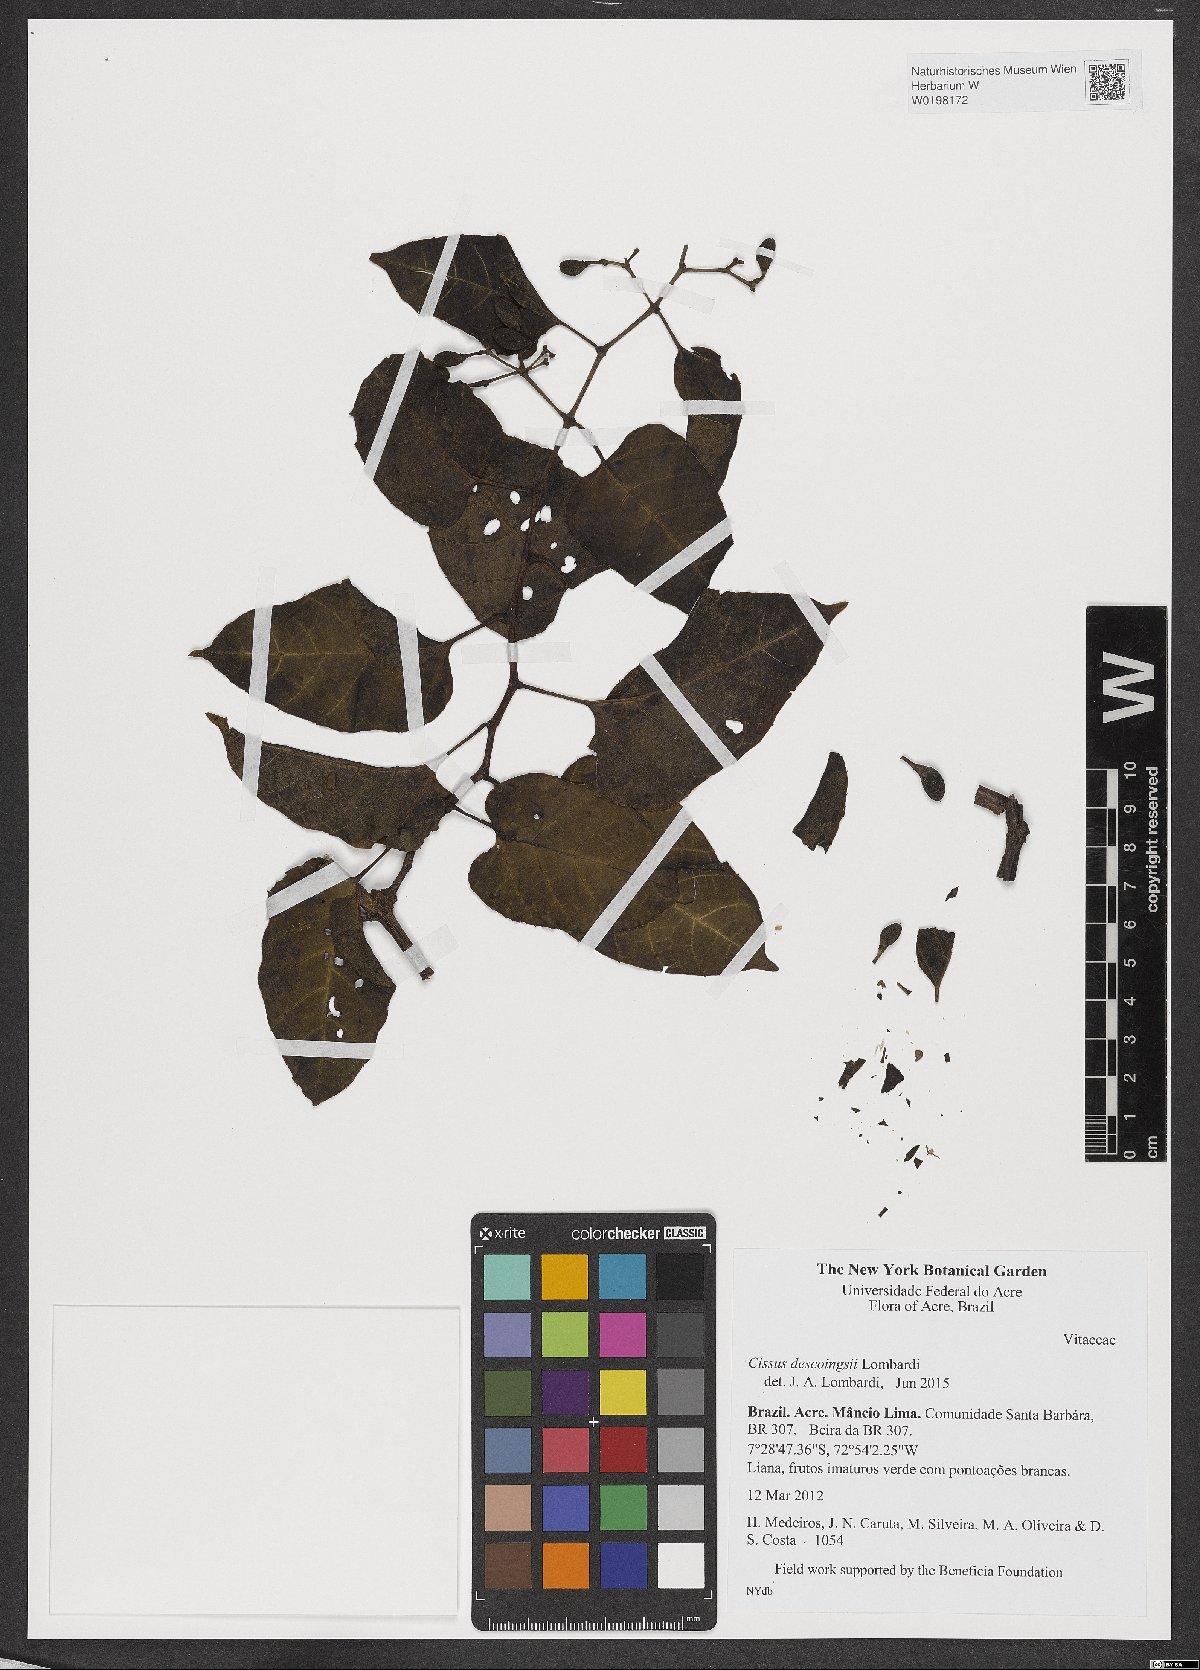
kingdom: Plantae
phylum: Tracheophyta
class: Magnoliopsida
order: Vitales
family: Vitaceae
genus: Cissus
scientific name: Cissus descoingsii
